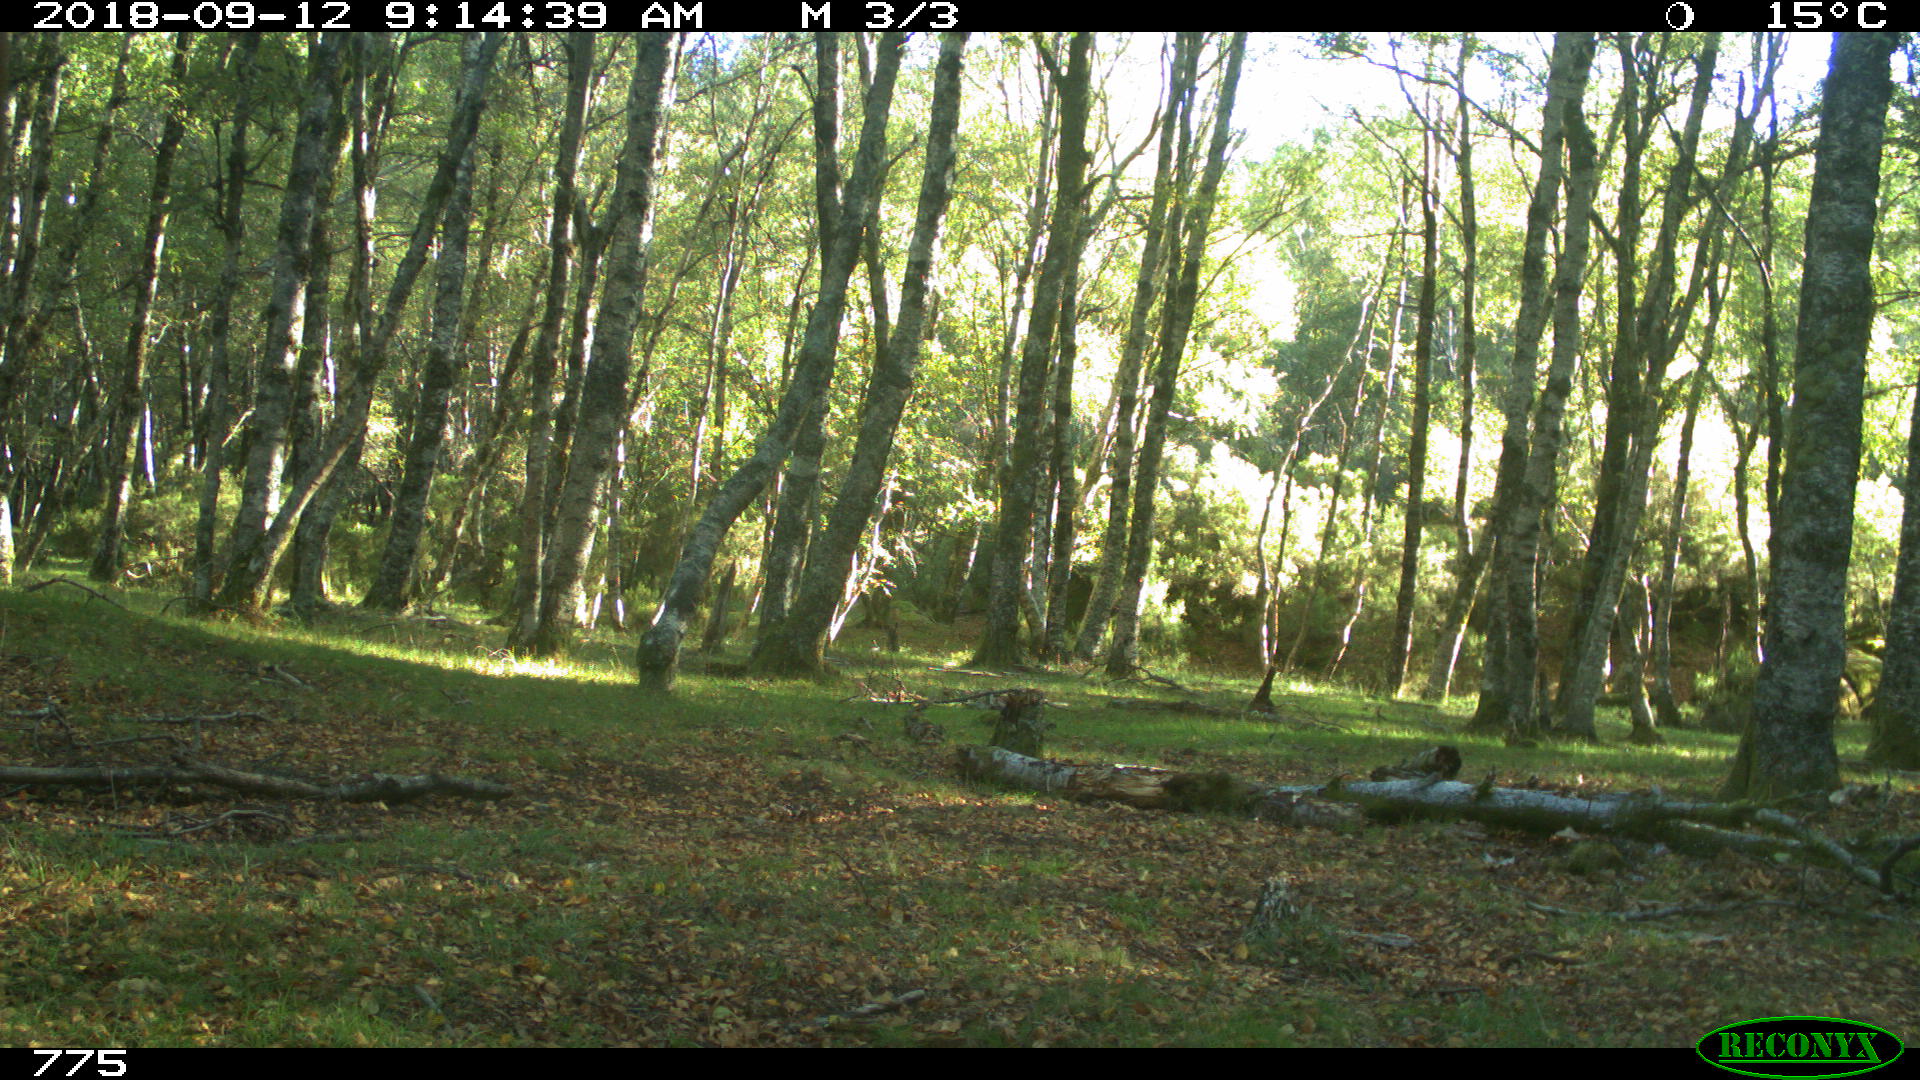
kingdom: Animalia
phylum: Chordata
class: Mammalia
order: Artiodactyla
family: Bovidae
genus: Bos
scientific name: Bos taurus
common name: Domesticated cattle
